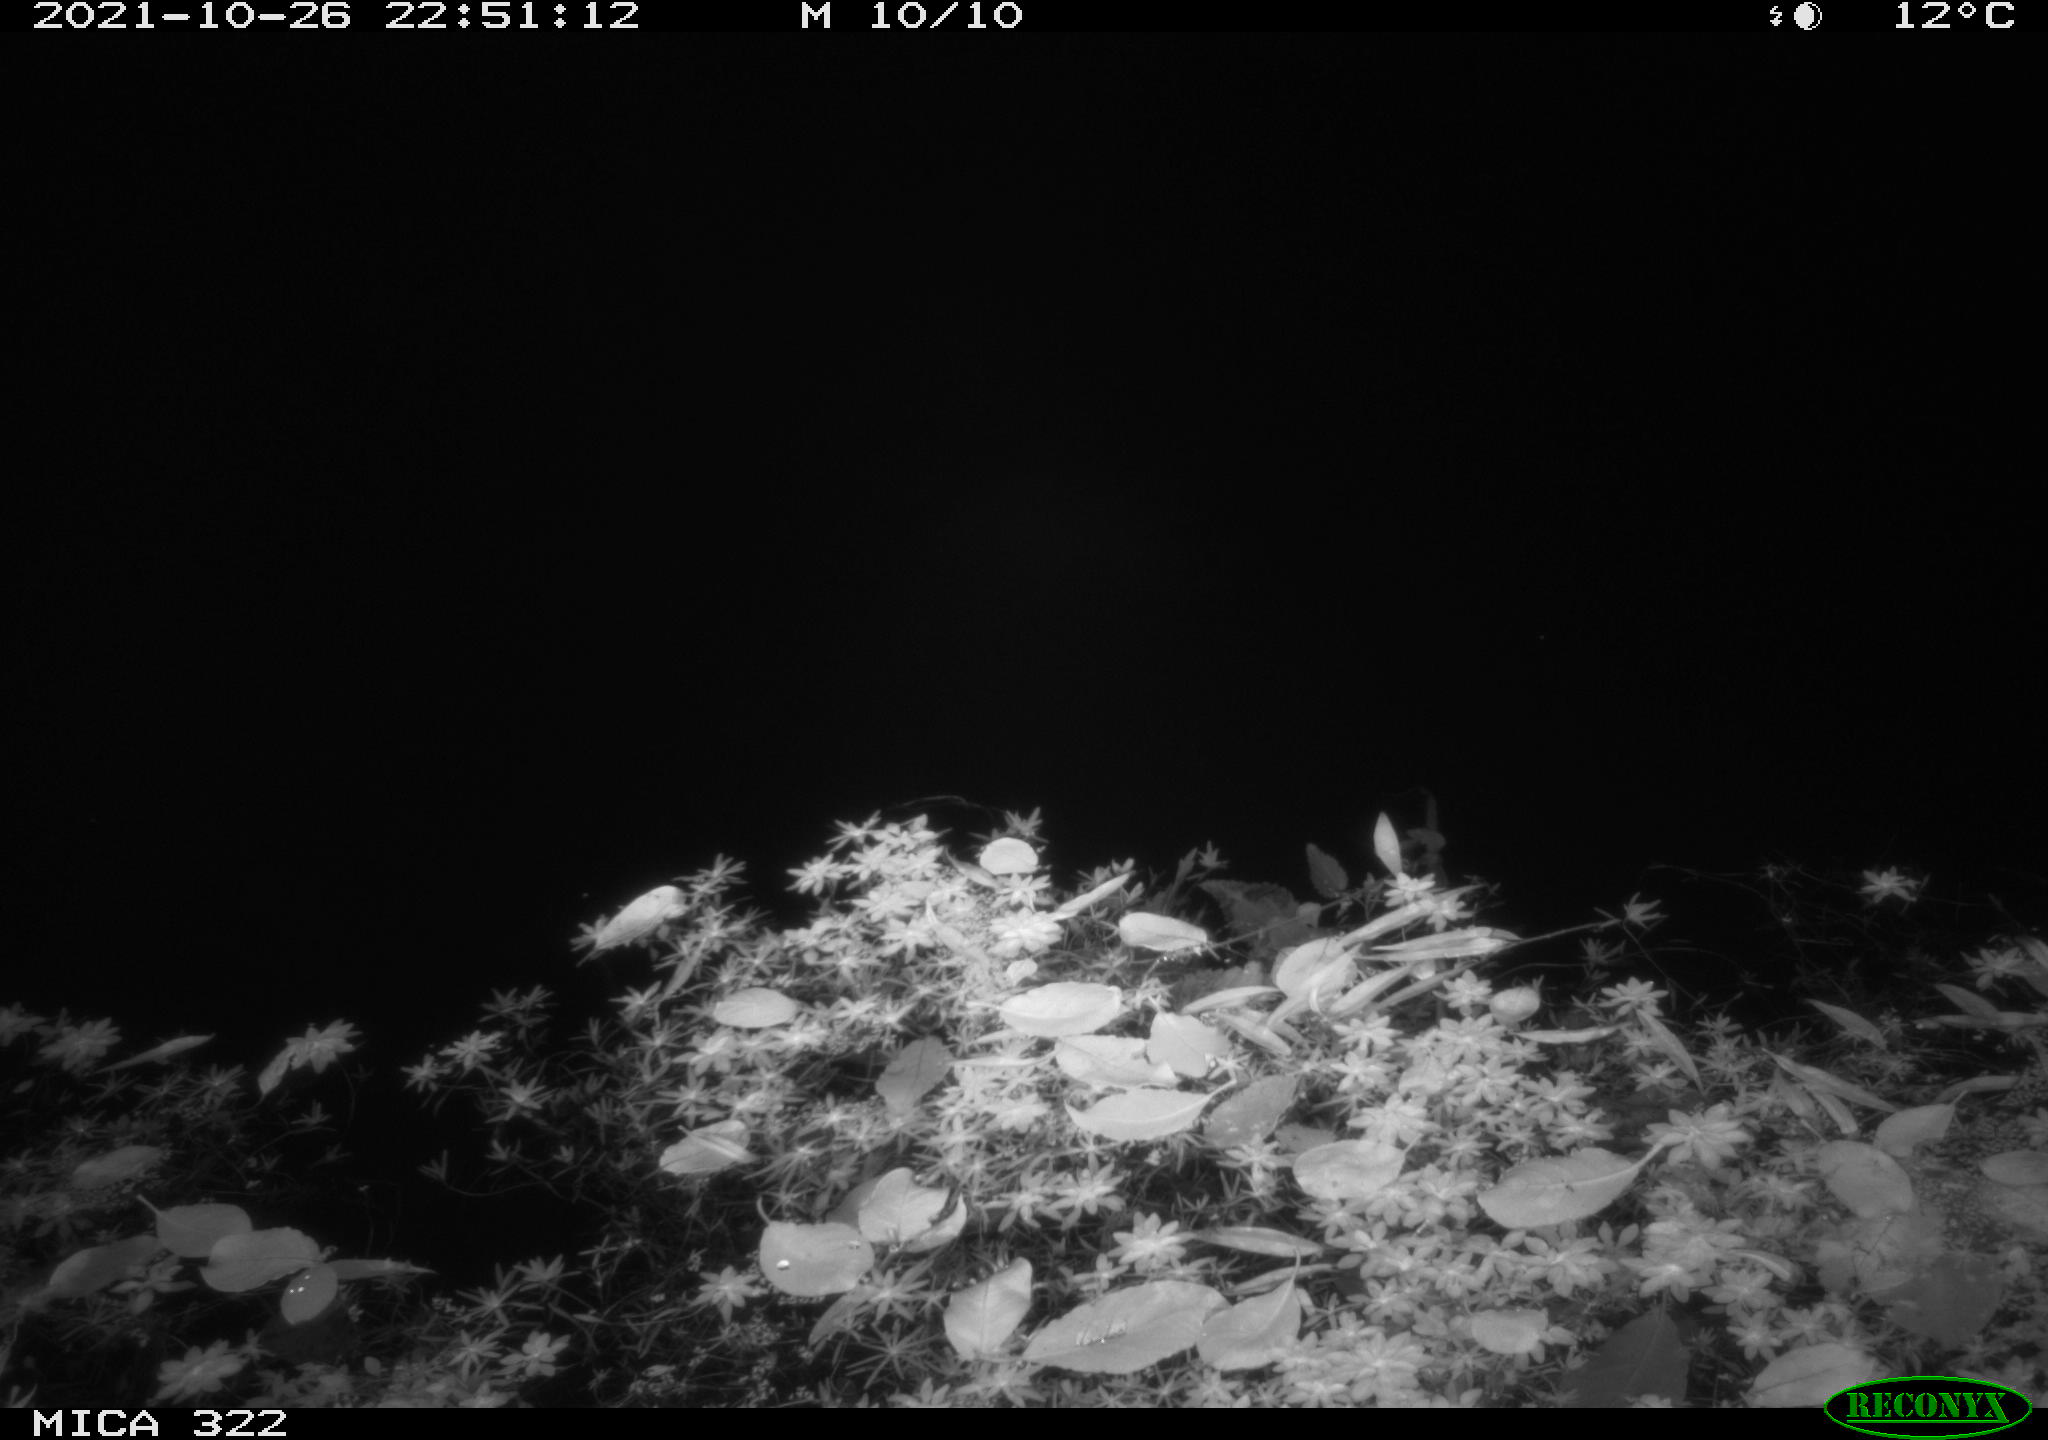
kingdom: Animalia
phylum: Chordata
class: Mammalia
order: Rodentia
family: Muridae
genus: Rattus
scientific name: Rattus norvegicus
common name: Brown rat
